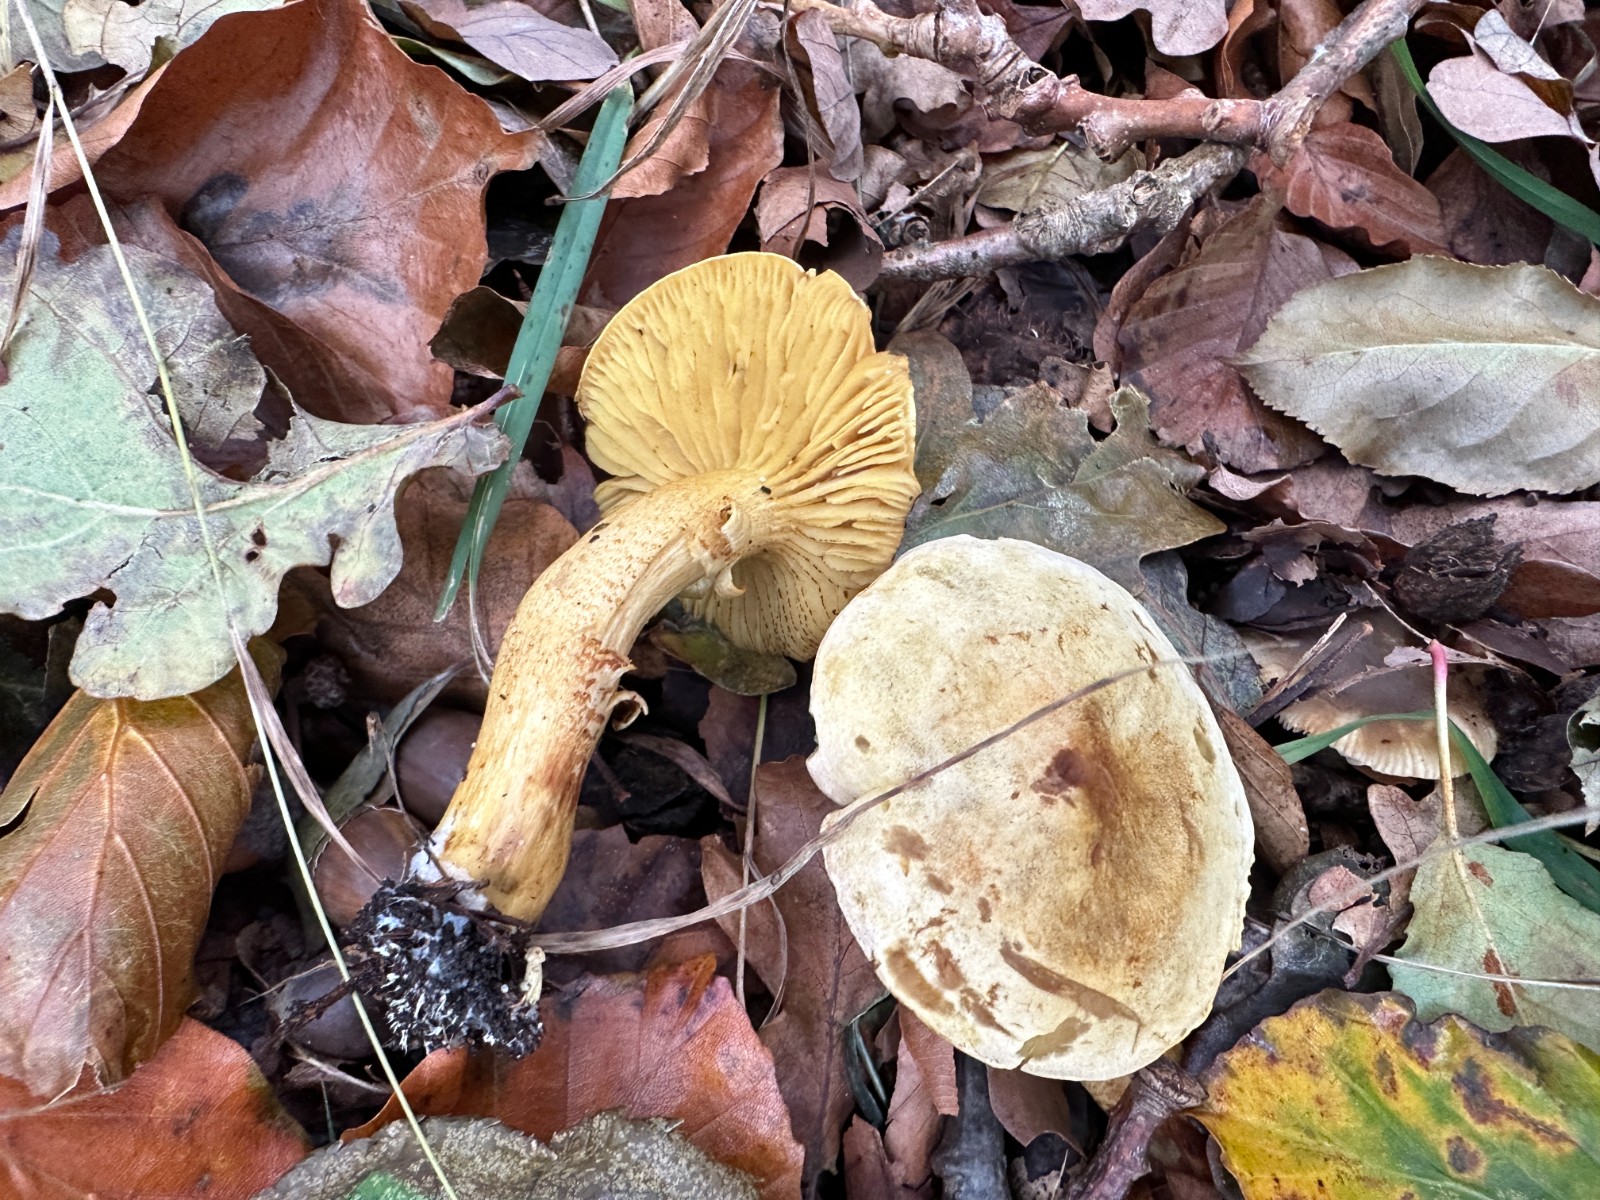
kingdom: Fungi
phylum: Basidiomycota
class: Agaricomycetes
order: Agaricales
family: Tricholomataceae
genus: Tricholoma
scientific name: Tricholoma sulphureum
